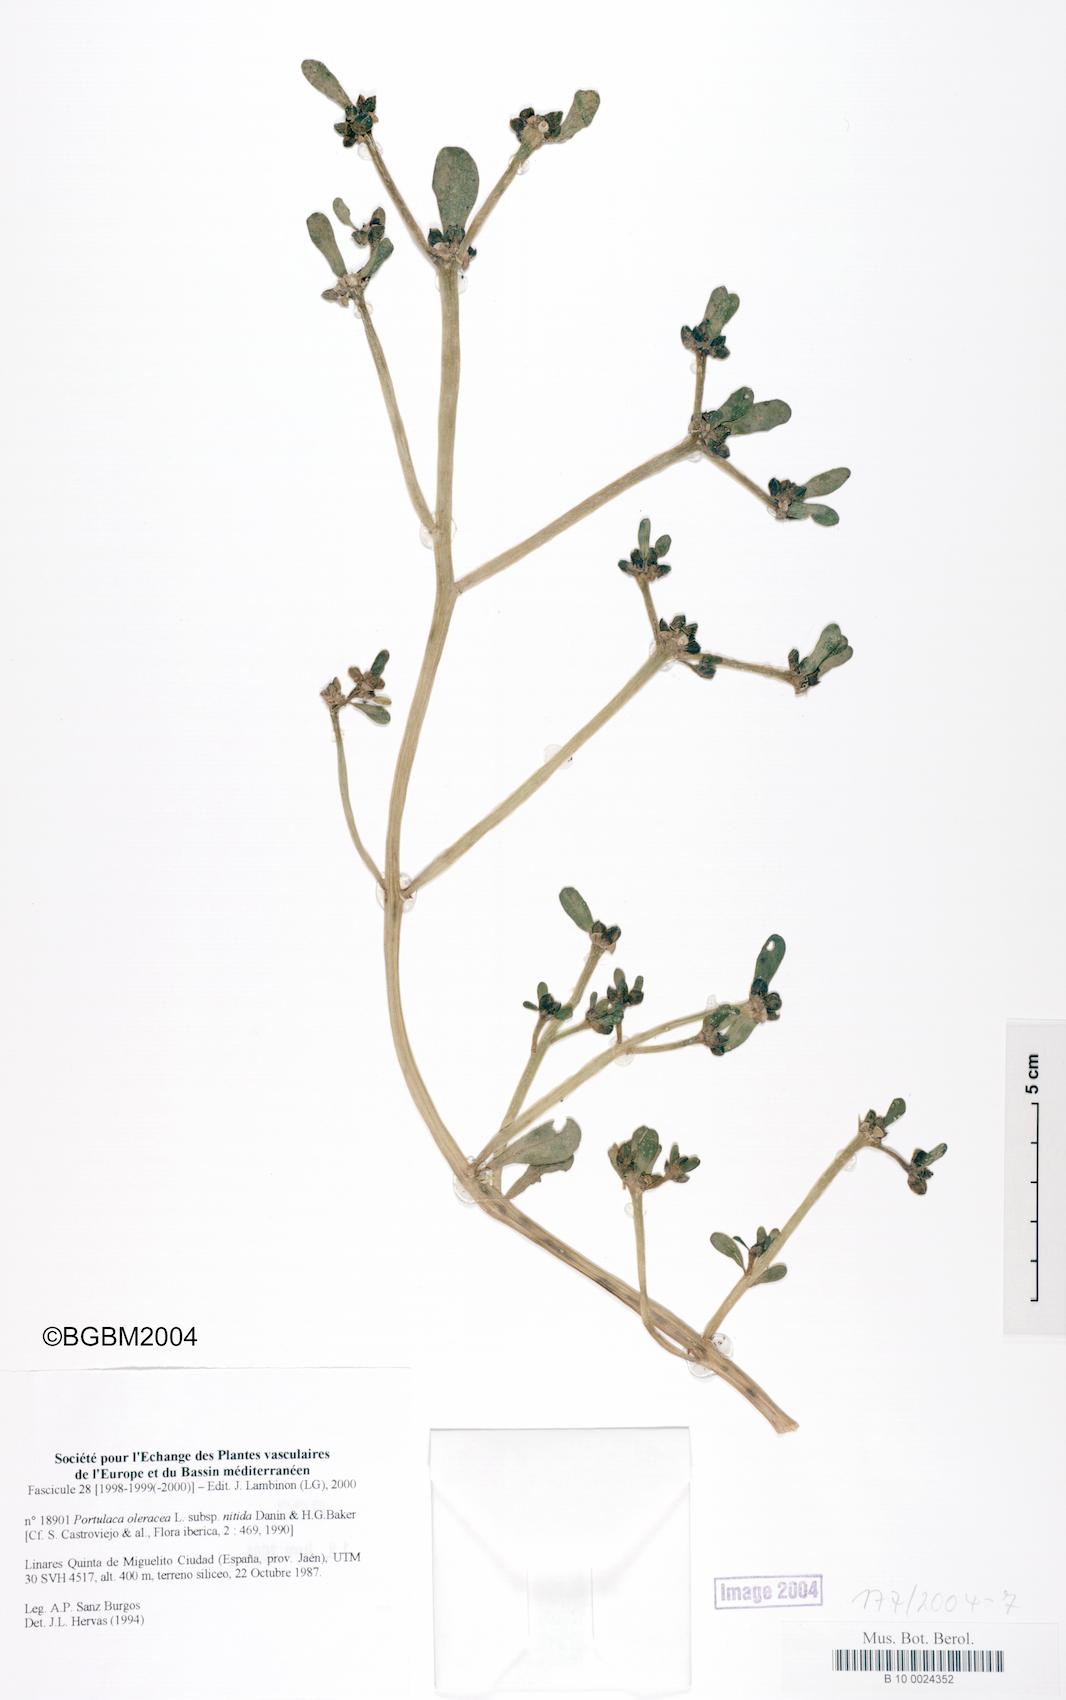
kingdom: Plantae
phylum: Tracheophyta
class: Magnoliopsida
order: Caryophyllales
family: Portulacaceae
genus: Portulaca
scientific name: Portulaca nitida
